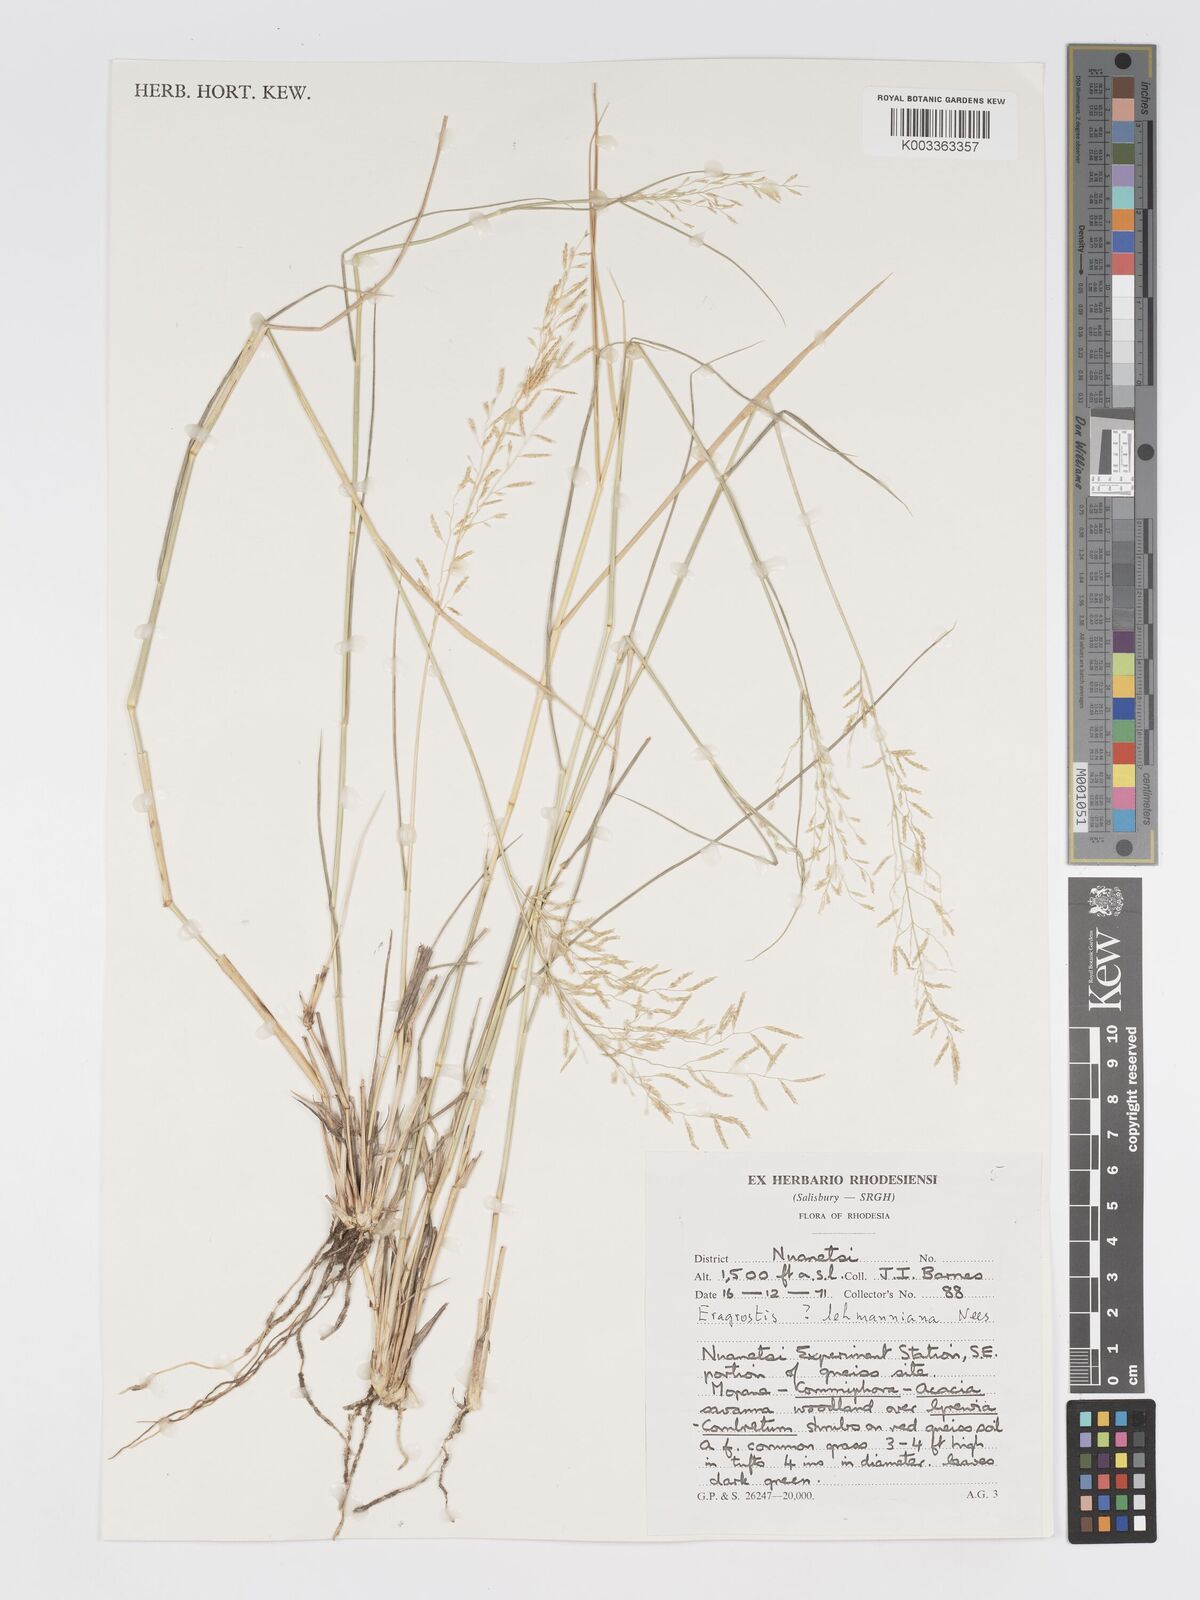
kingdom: Plantae
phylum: Tracheophyta
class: Liliopsida
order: Poales
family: Poaceae
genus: Eragrostis
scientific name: Eragrostis lehmanniana
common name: Lehmann lovegrass
